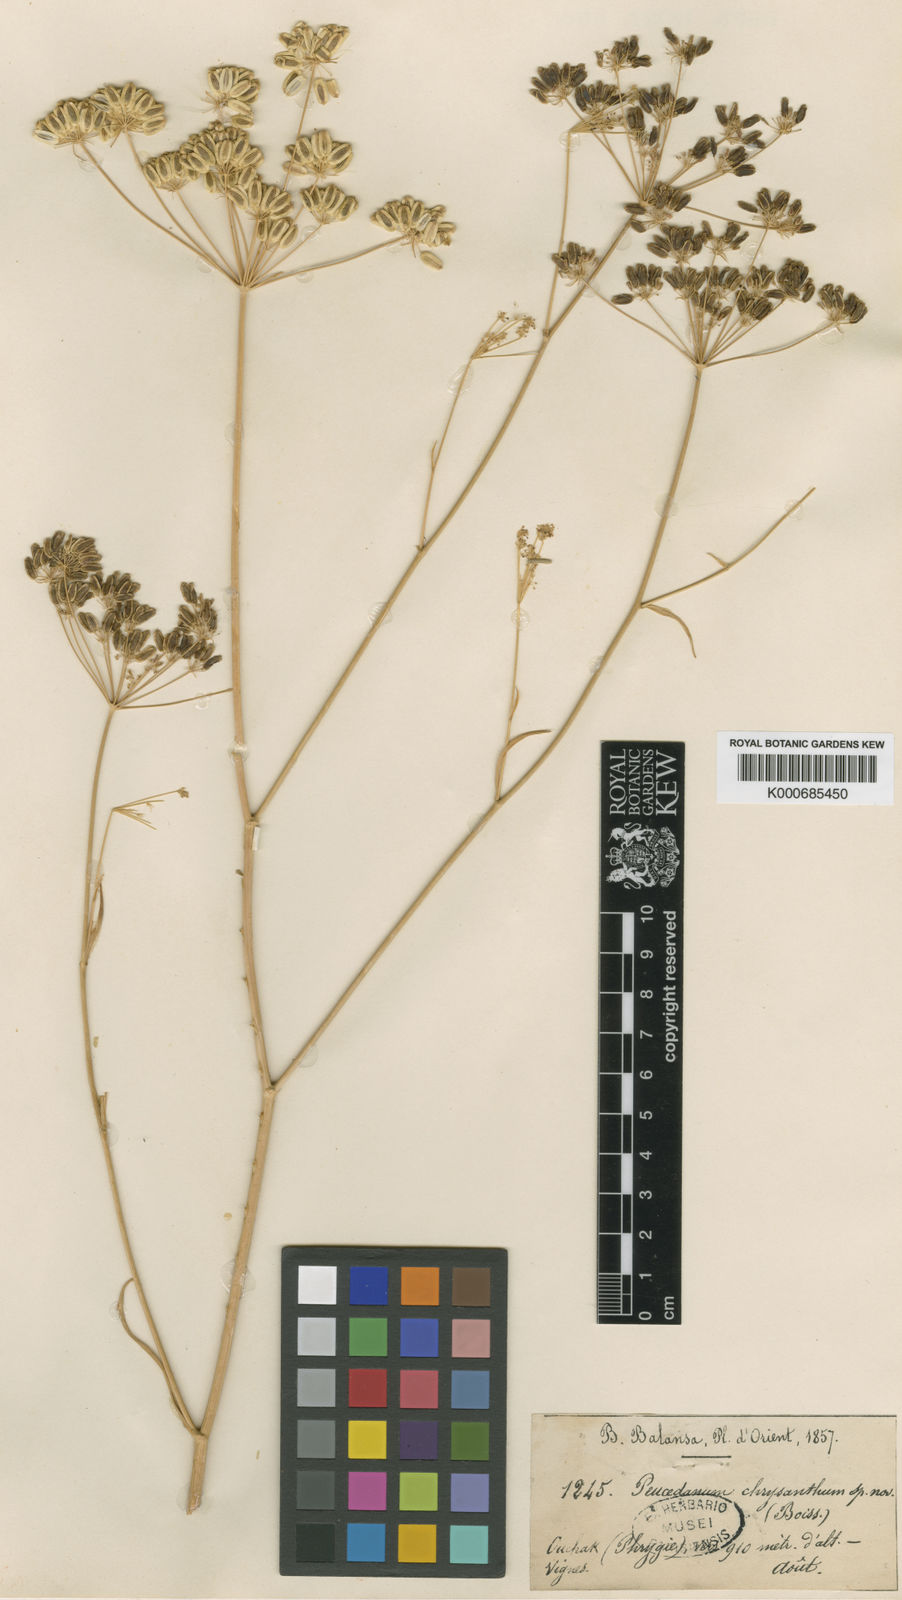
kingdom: Plantae
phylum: Tracheophyta
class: Magnoliopsida
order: Apiales
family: Apiaceae
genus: Dichoropetalum
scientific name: Dichoropetalum chryseum
